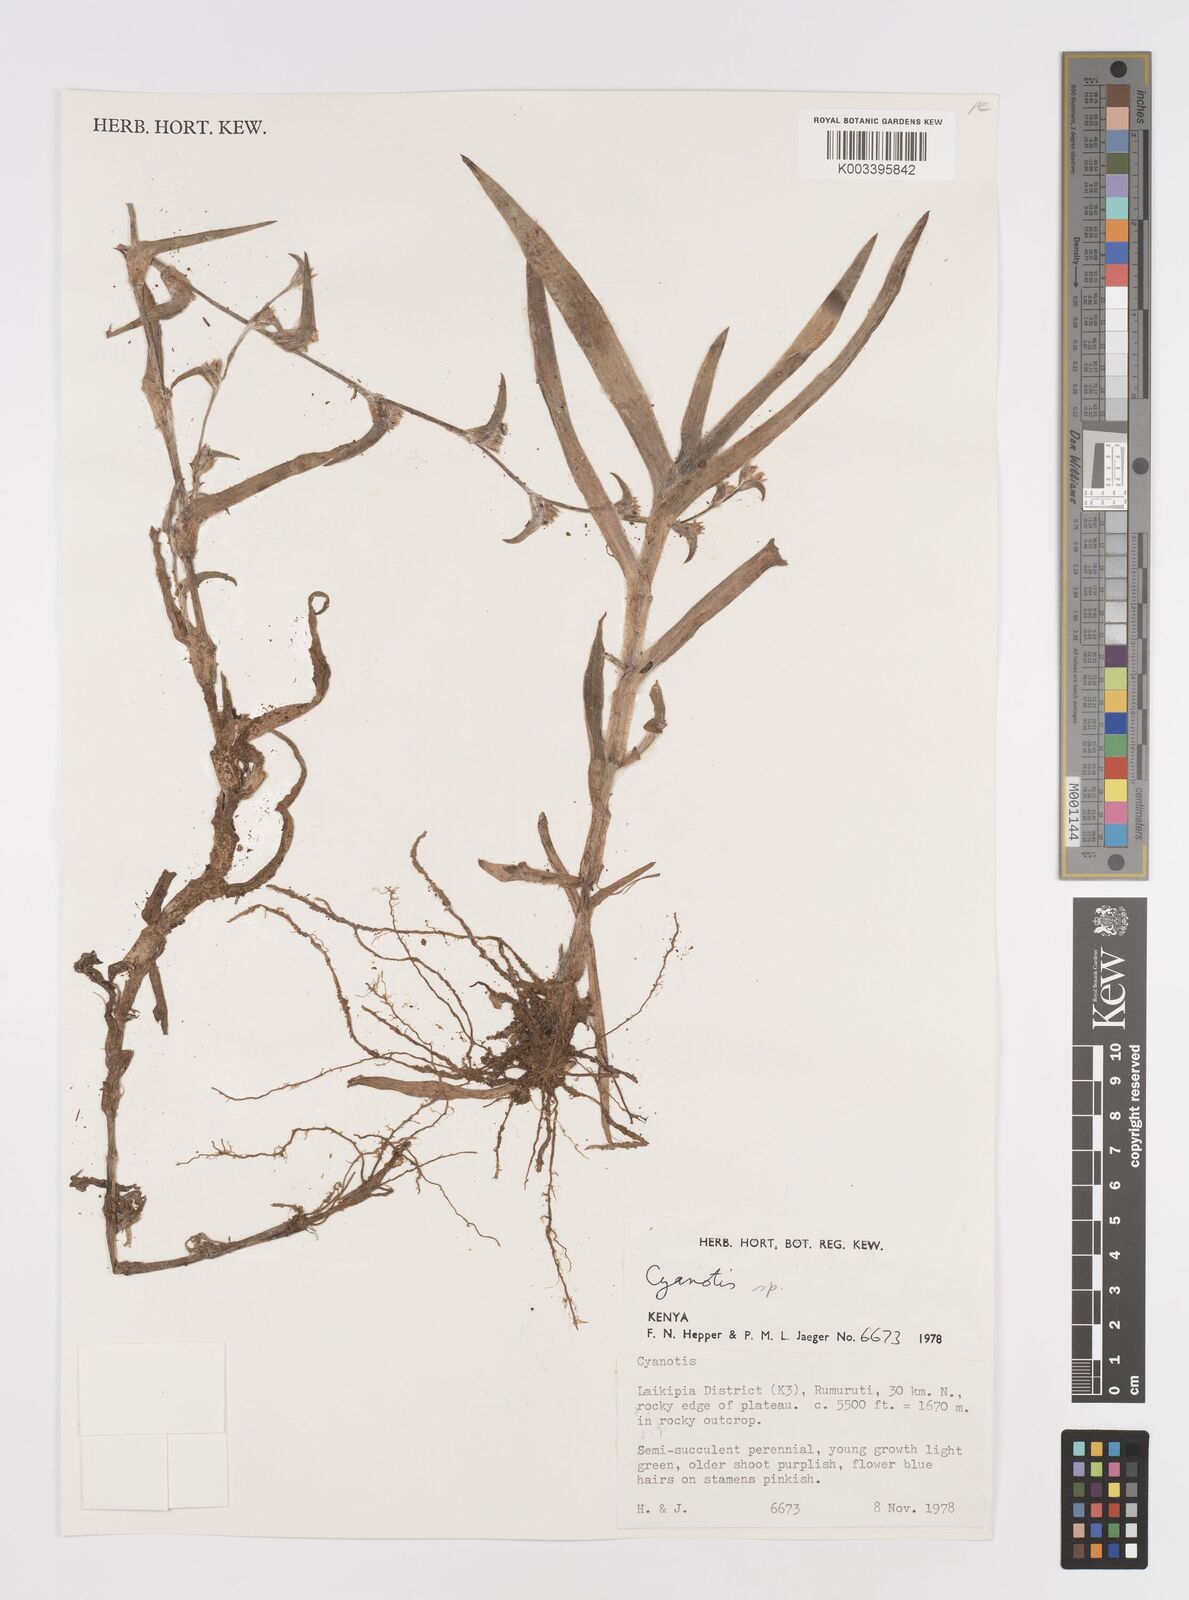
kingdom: Plantae
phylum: Tracheophyta
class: Liliopsida
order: Commelinales
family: Commelinaceae
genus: Cyanotis
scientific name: Cyanotis foecunda
